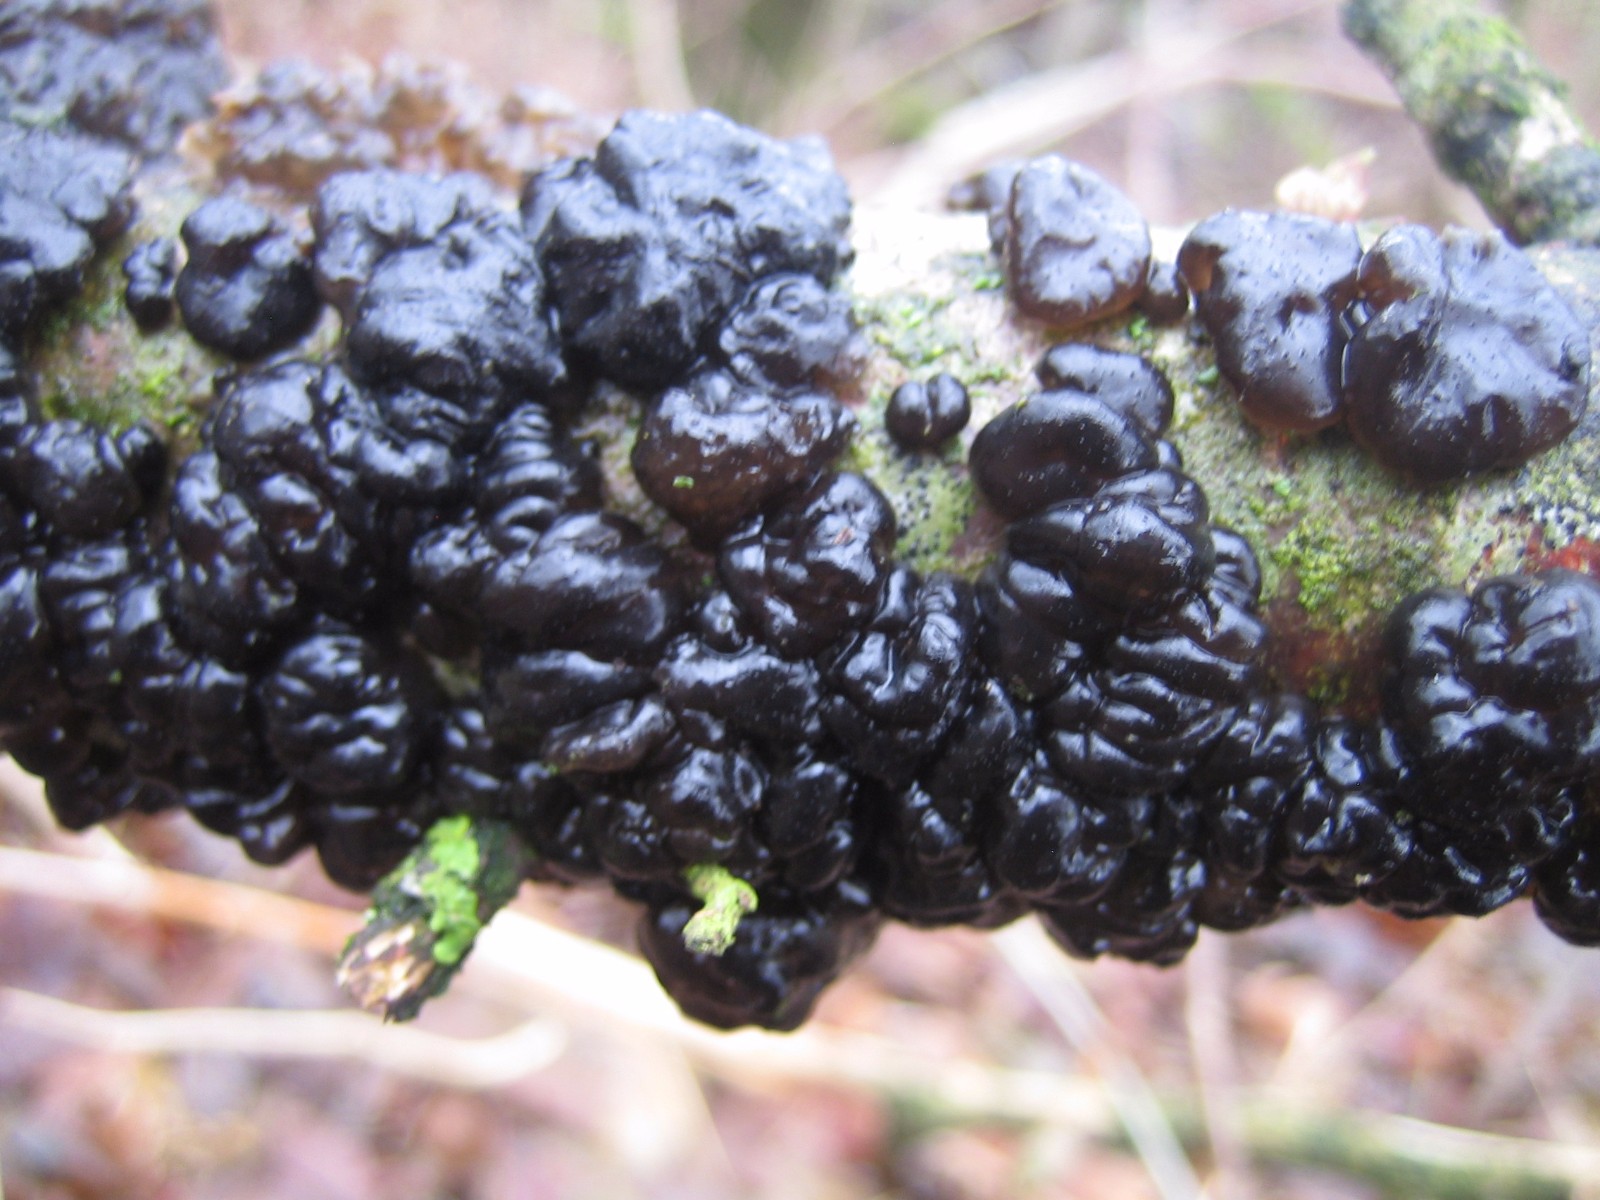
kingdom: Fungi
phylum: Basidiomycota
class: Agaricomycetes
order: Auriculariales
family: Auriculariaceae
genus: Exidia
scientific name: Exidia glandulosa
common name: ege-bævretop
